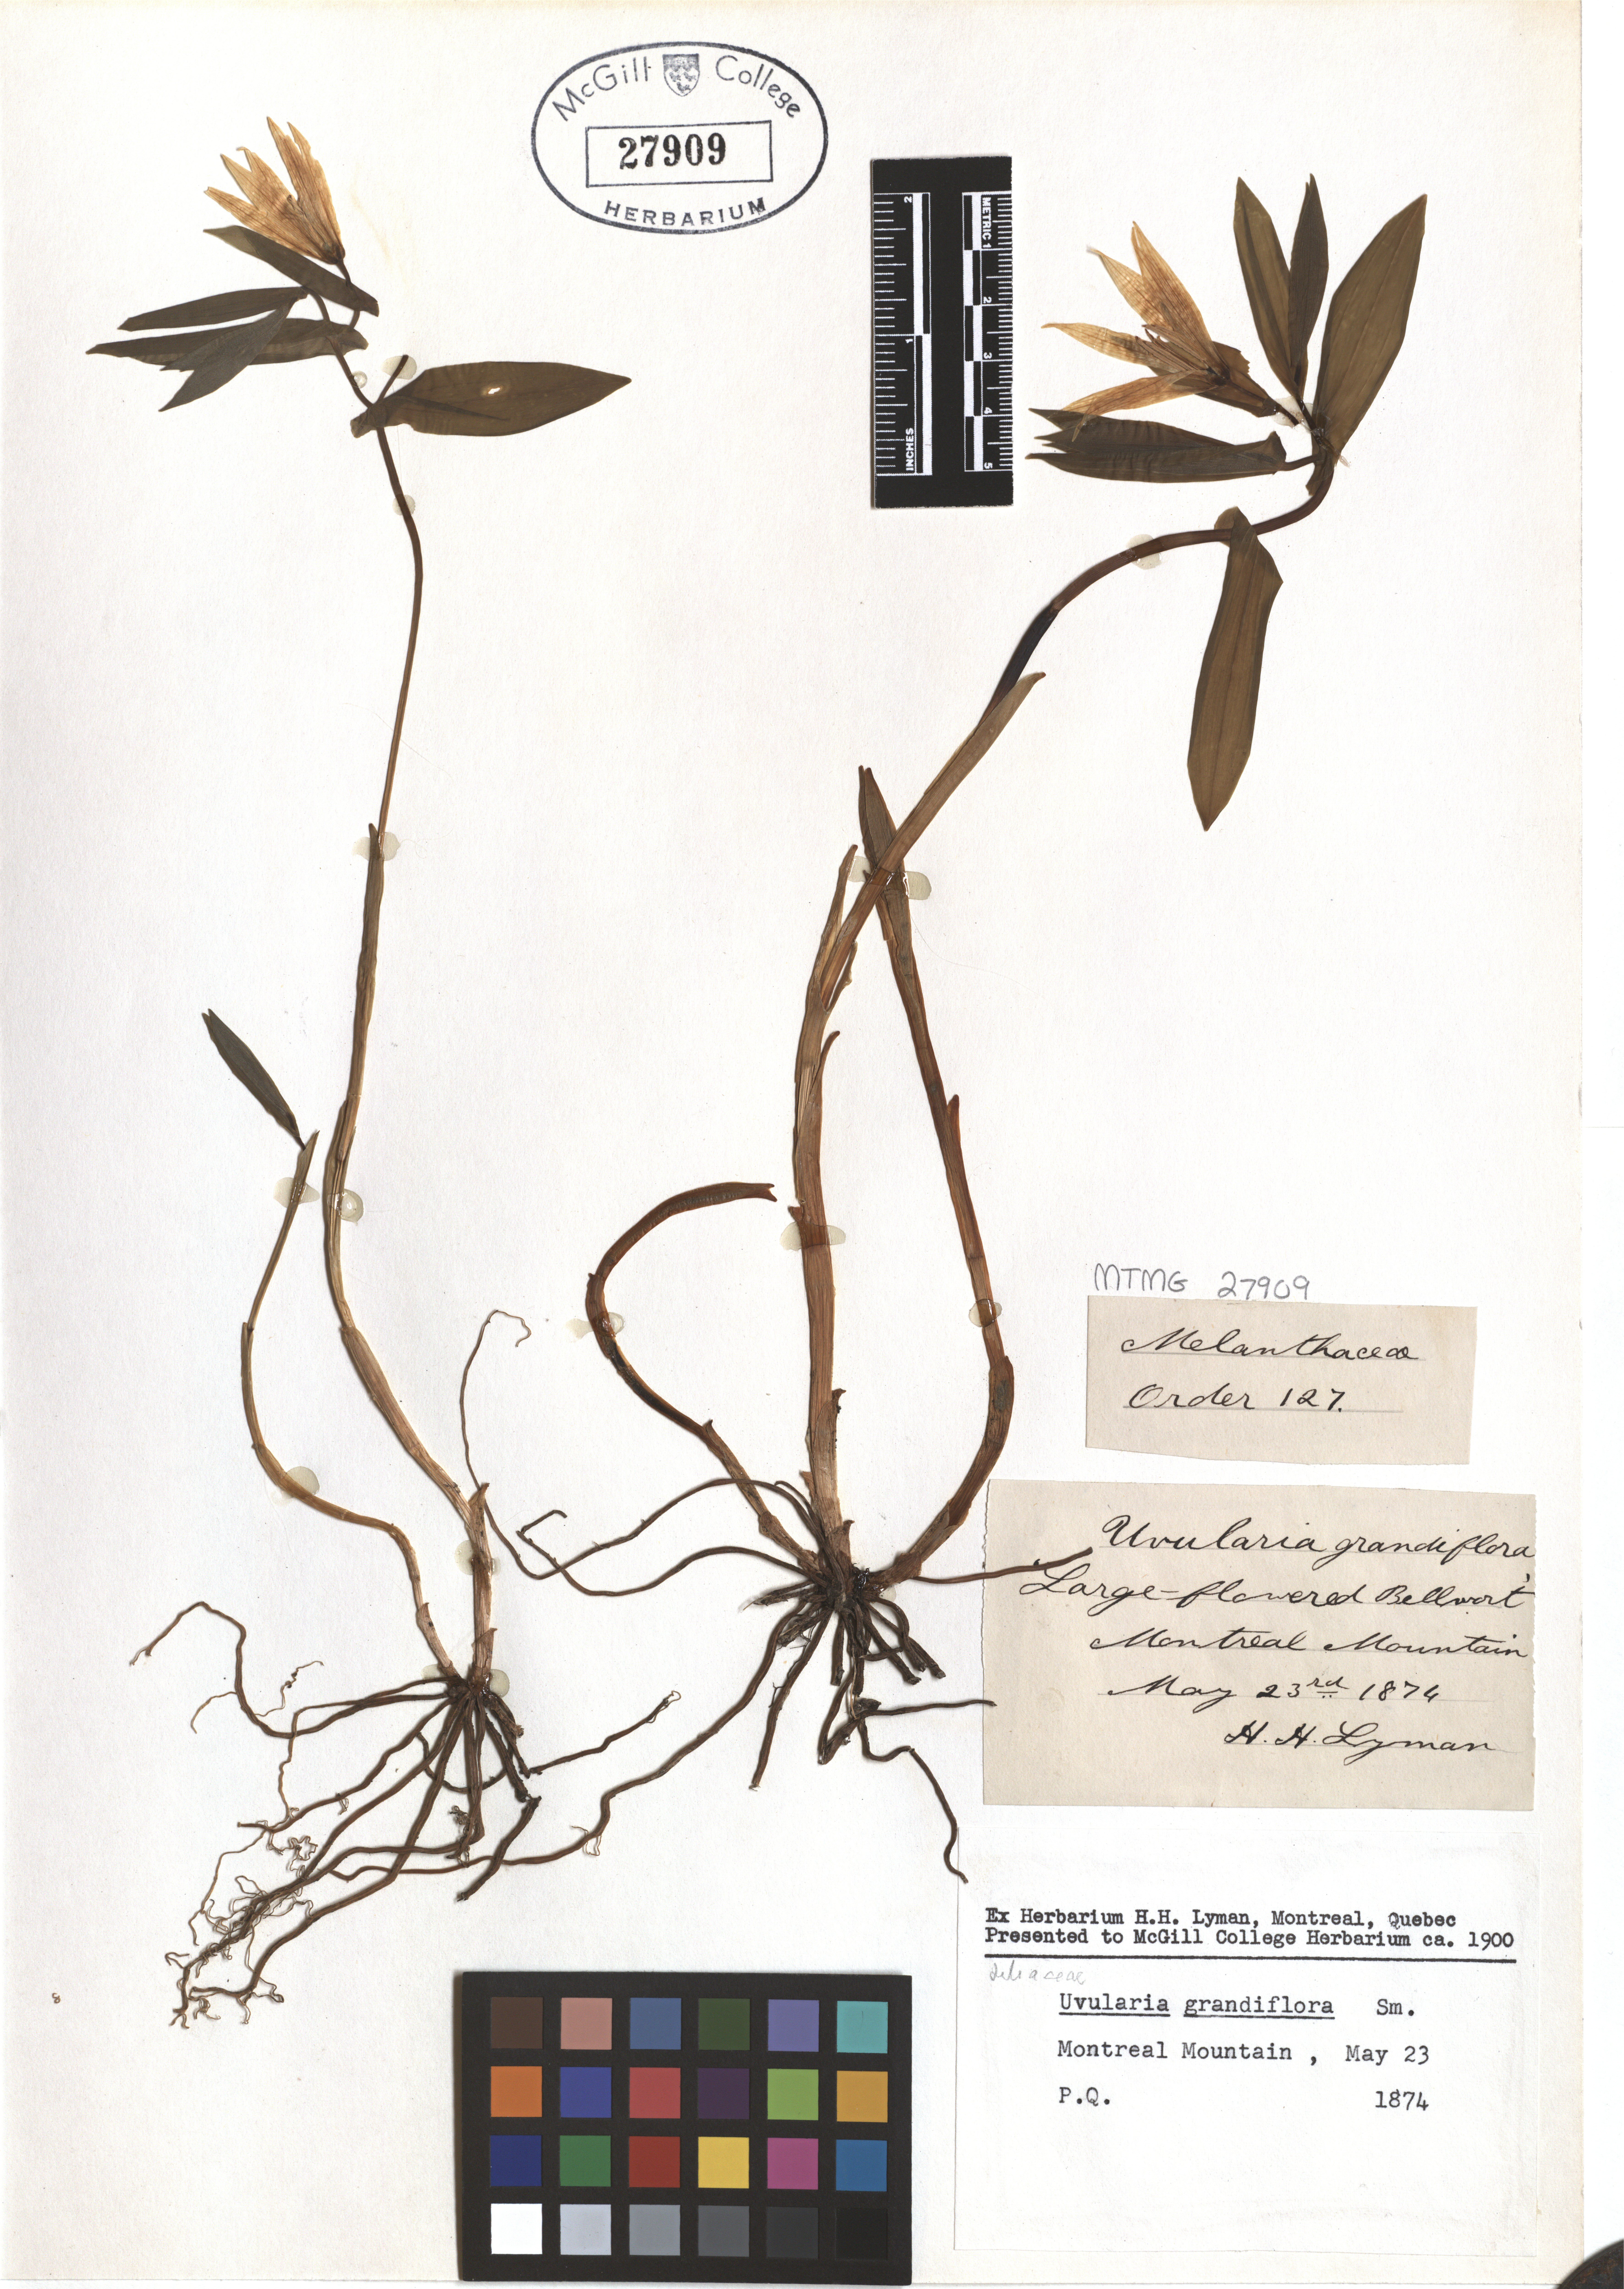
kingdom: Plantae
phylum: Tracheophyta
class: Liliopsida
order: Liliales
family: Colchicaceae
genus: Uvularia
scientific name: Uvularia grandiflora
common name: Bellwort
